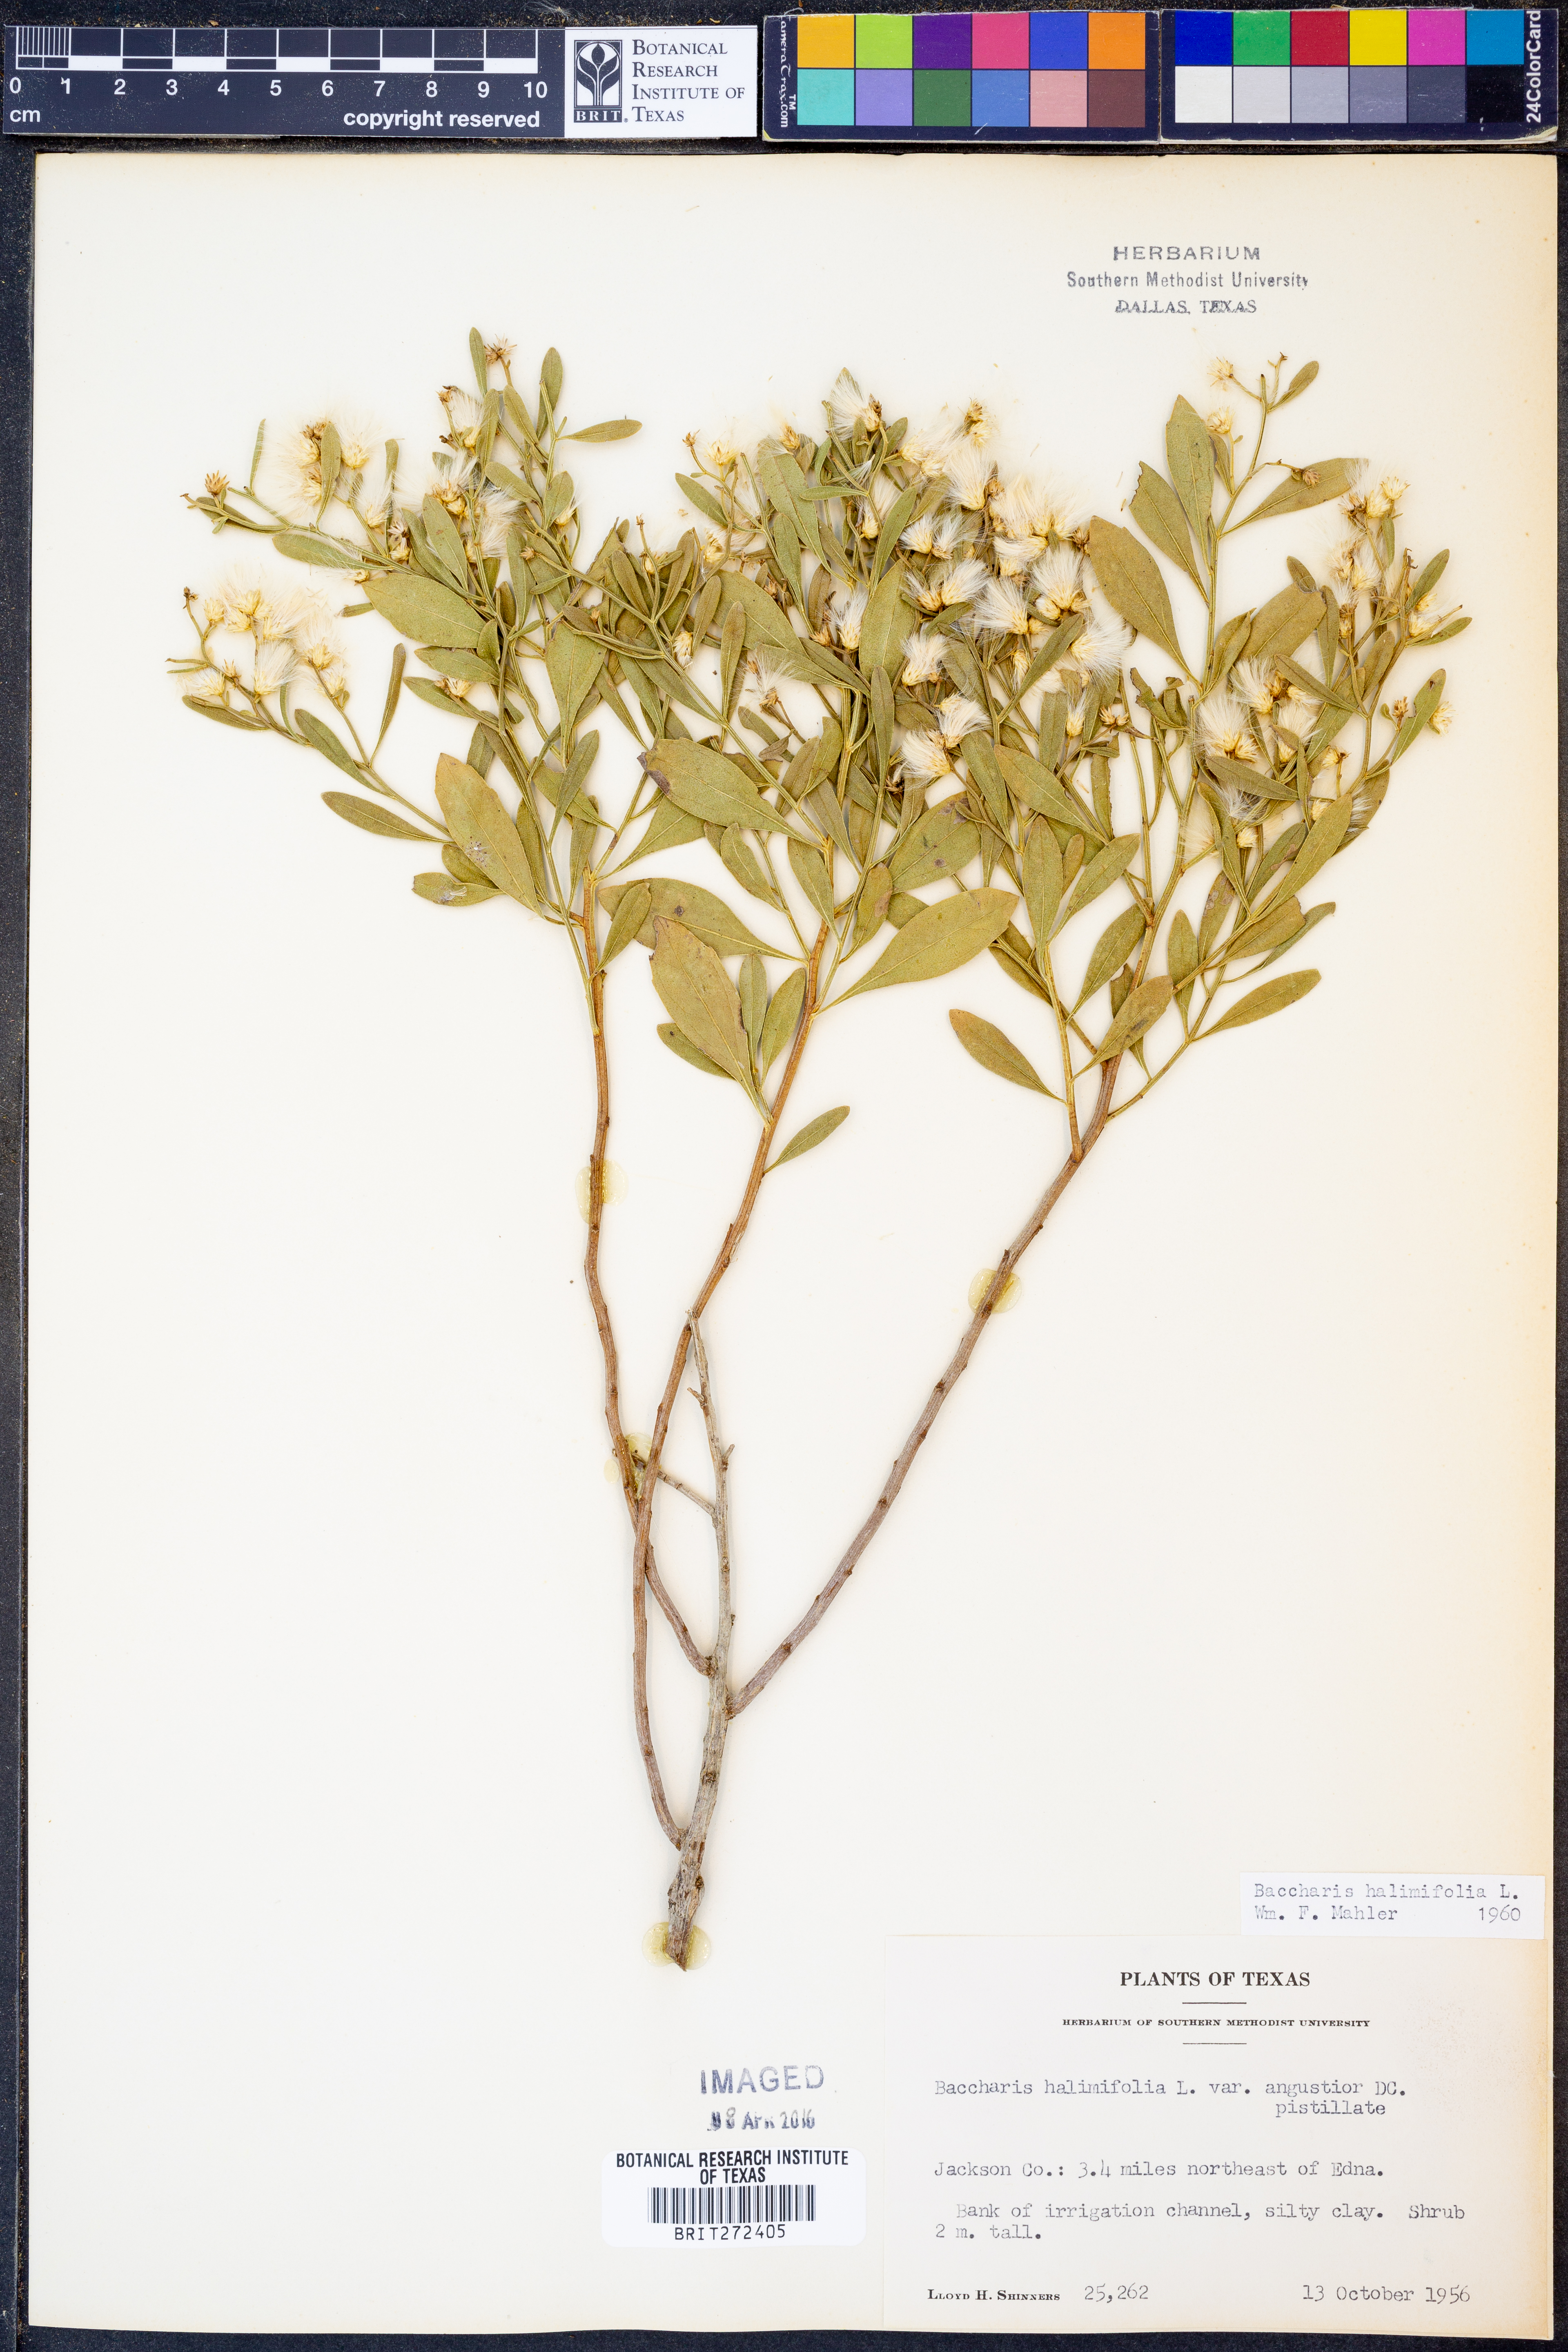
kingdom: Plantae
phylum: Tracheophyta
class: Magnoliopsida
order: Asterales
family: Asteraceae
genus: Nidorella
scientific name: Nidorella ivifolia
